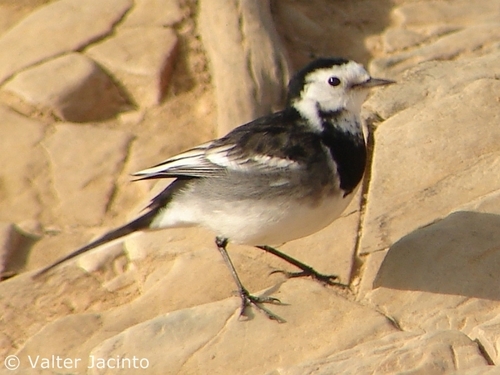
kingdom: Animalia
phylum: Chordata
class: Aves
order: Passeriformes
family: Motacillidae
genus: Motacilla
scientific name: Motacilla alba
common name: White wagtail
